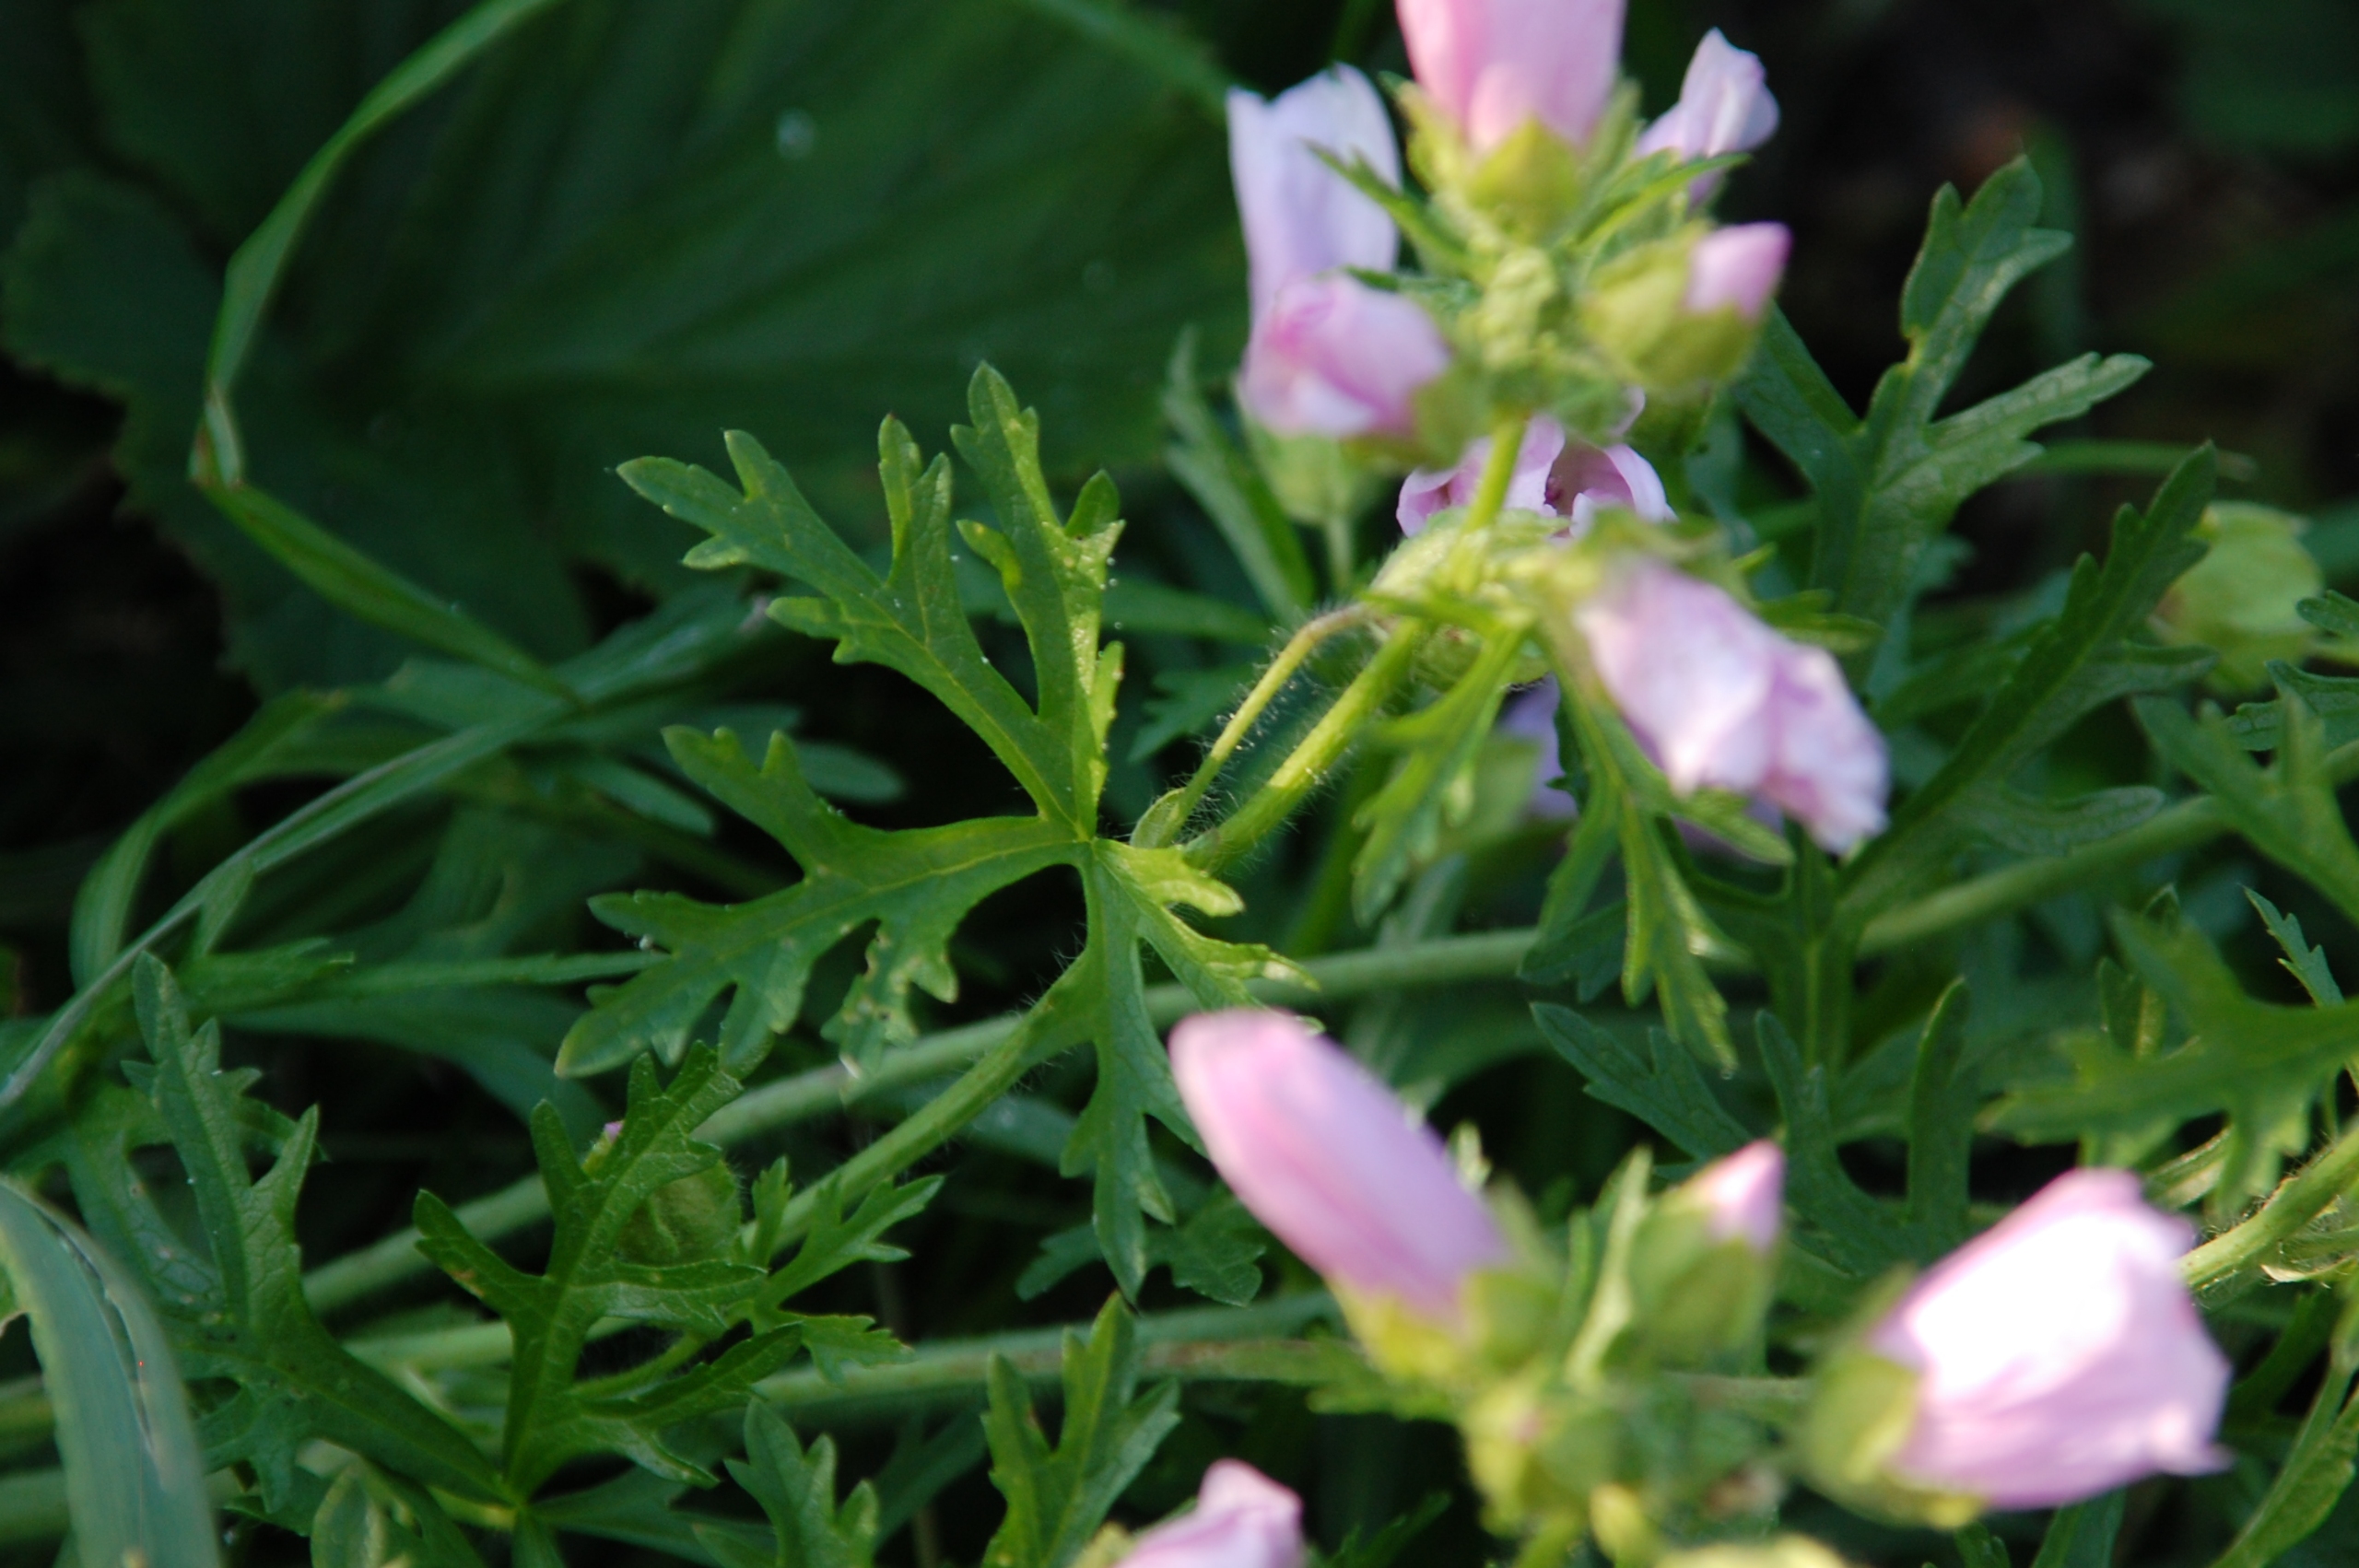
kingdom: Plantae
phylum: Tracheophyta
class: Magnoliopsida
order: Malvales
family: Malvaceae
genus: Malva
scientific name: Malva moschata
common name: Moskus-katost
